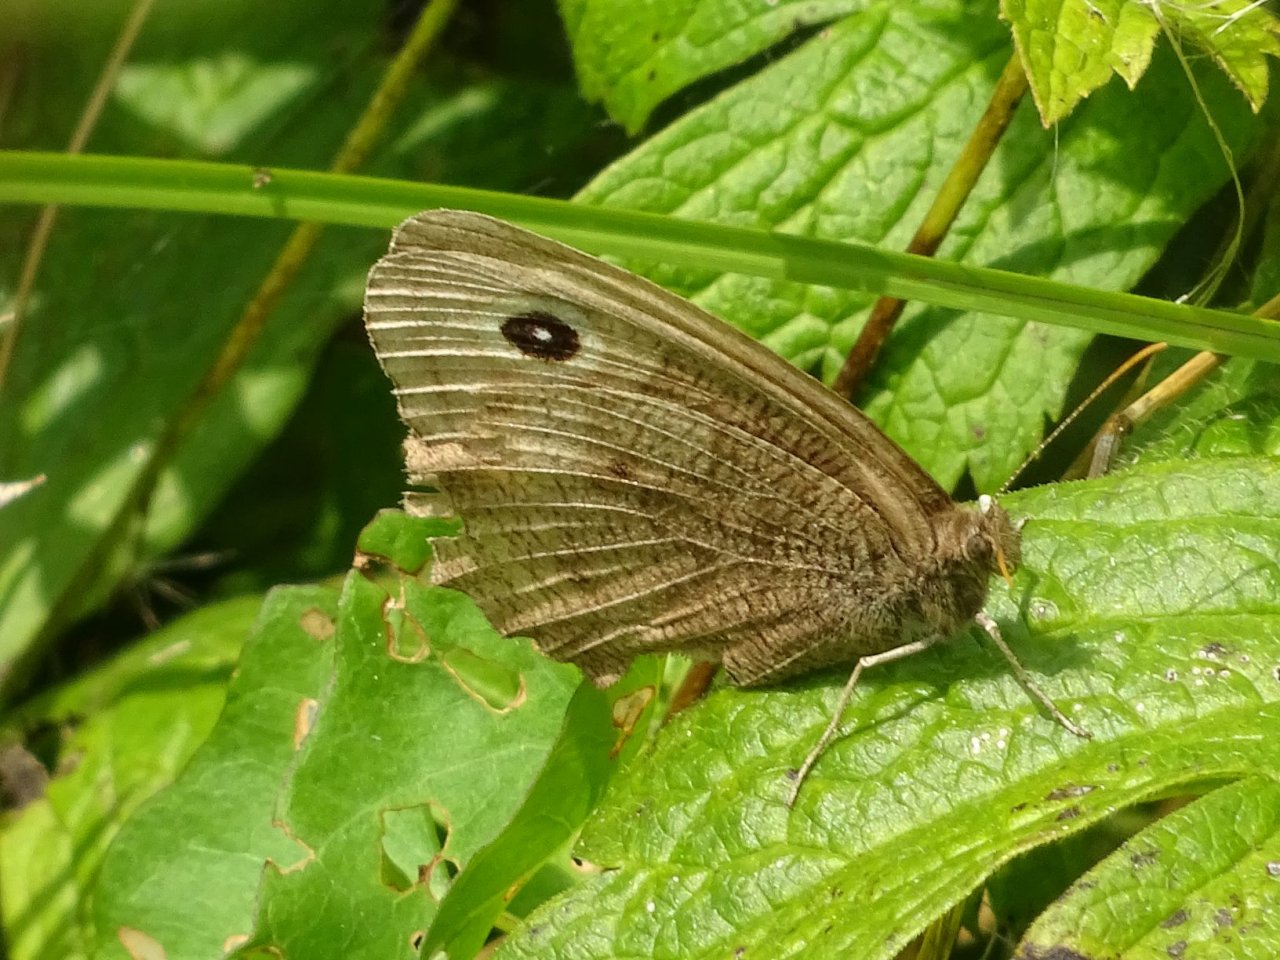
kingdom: Animalia
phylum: Arthropoda
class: Insecta
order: Lepidoptera
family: Nymphalidae
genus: Cercyonis
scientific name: Cercyonis pegala
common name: Common Wood-Nymph
